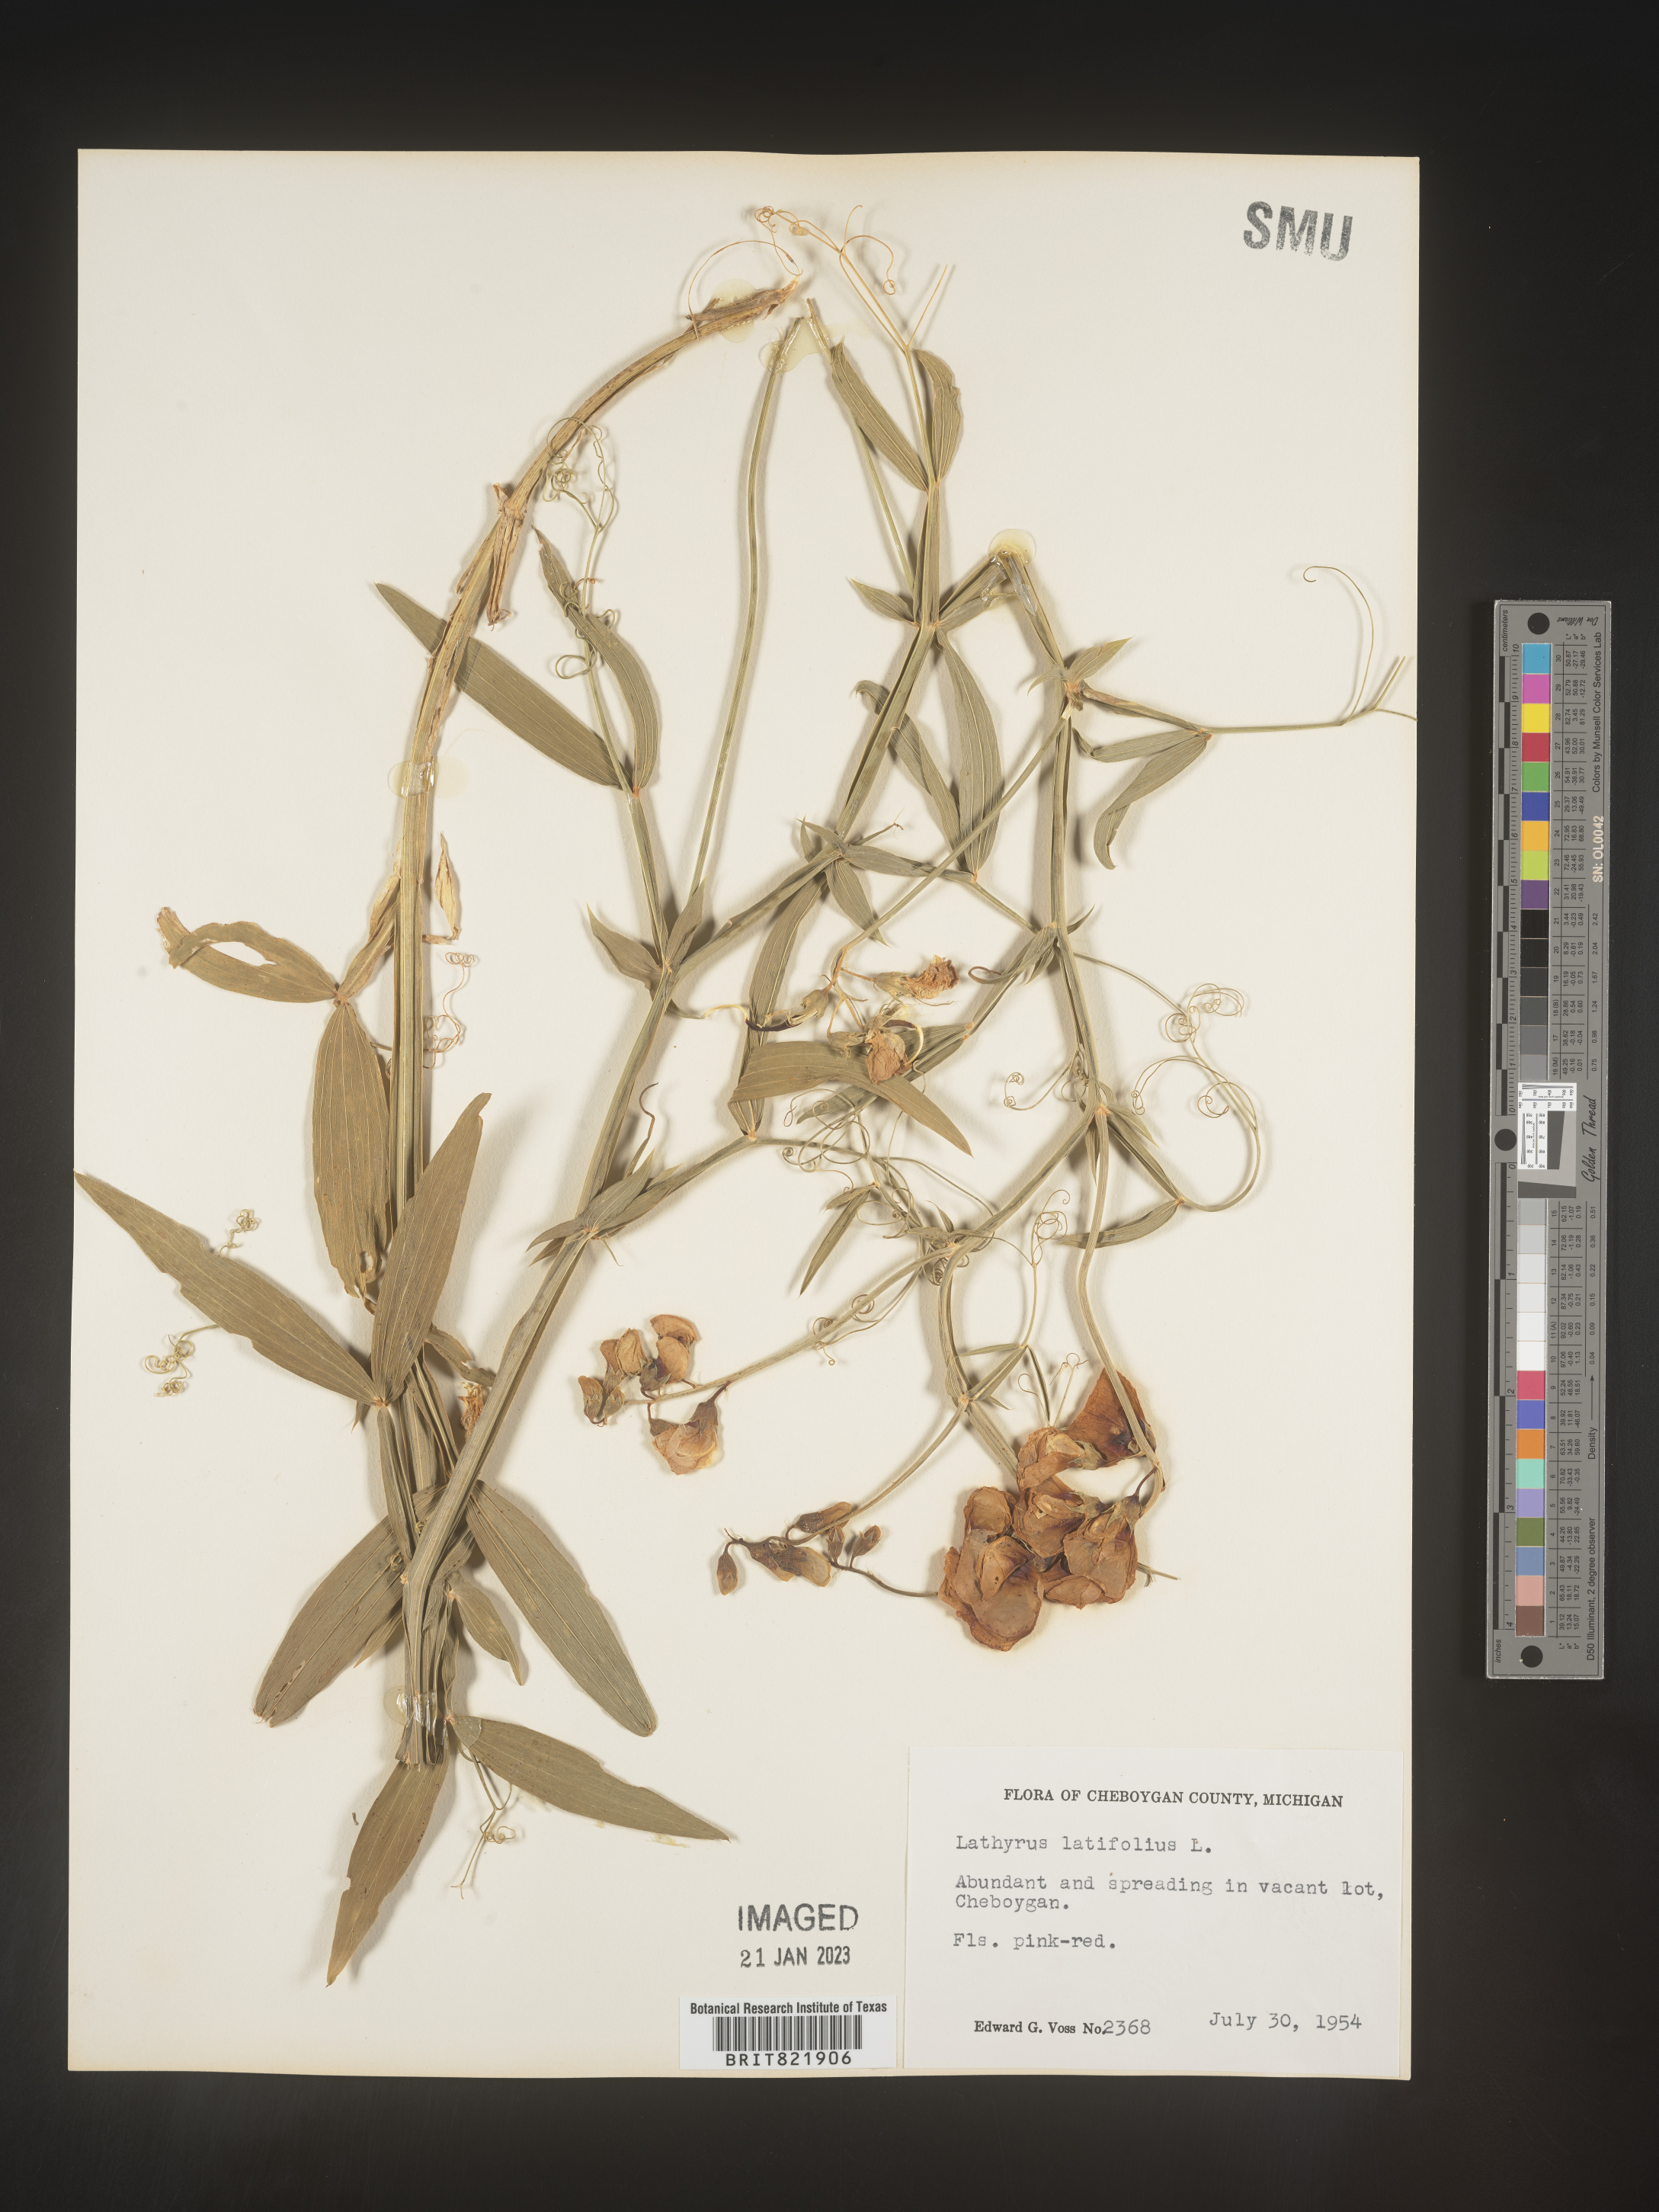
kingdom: Plantae
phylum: Tracheophyta
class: Magnoliopsida
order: Fabales
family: Fabaceae
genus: Lathyrus
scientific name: Lathyrus latifolius
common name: Perennial pea
